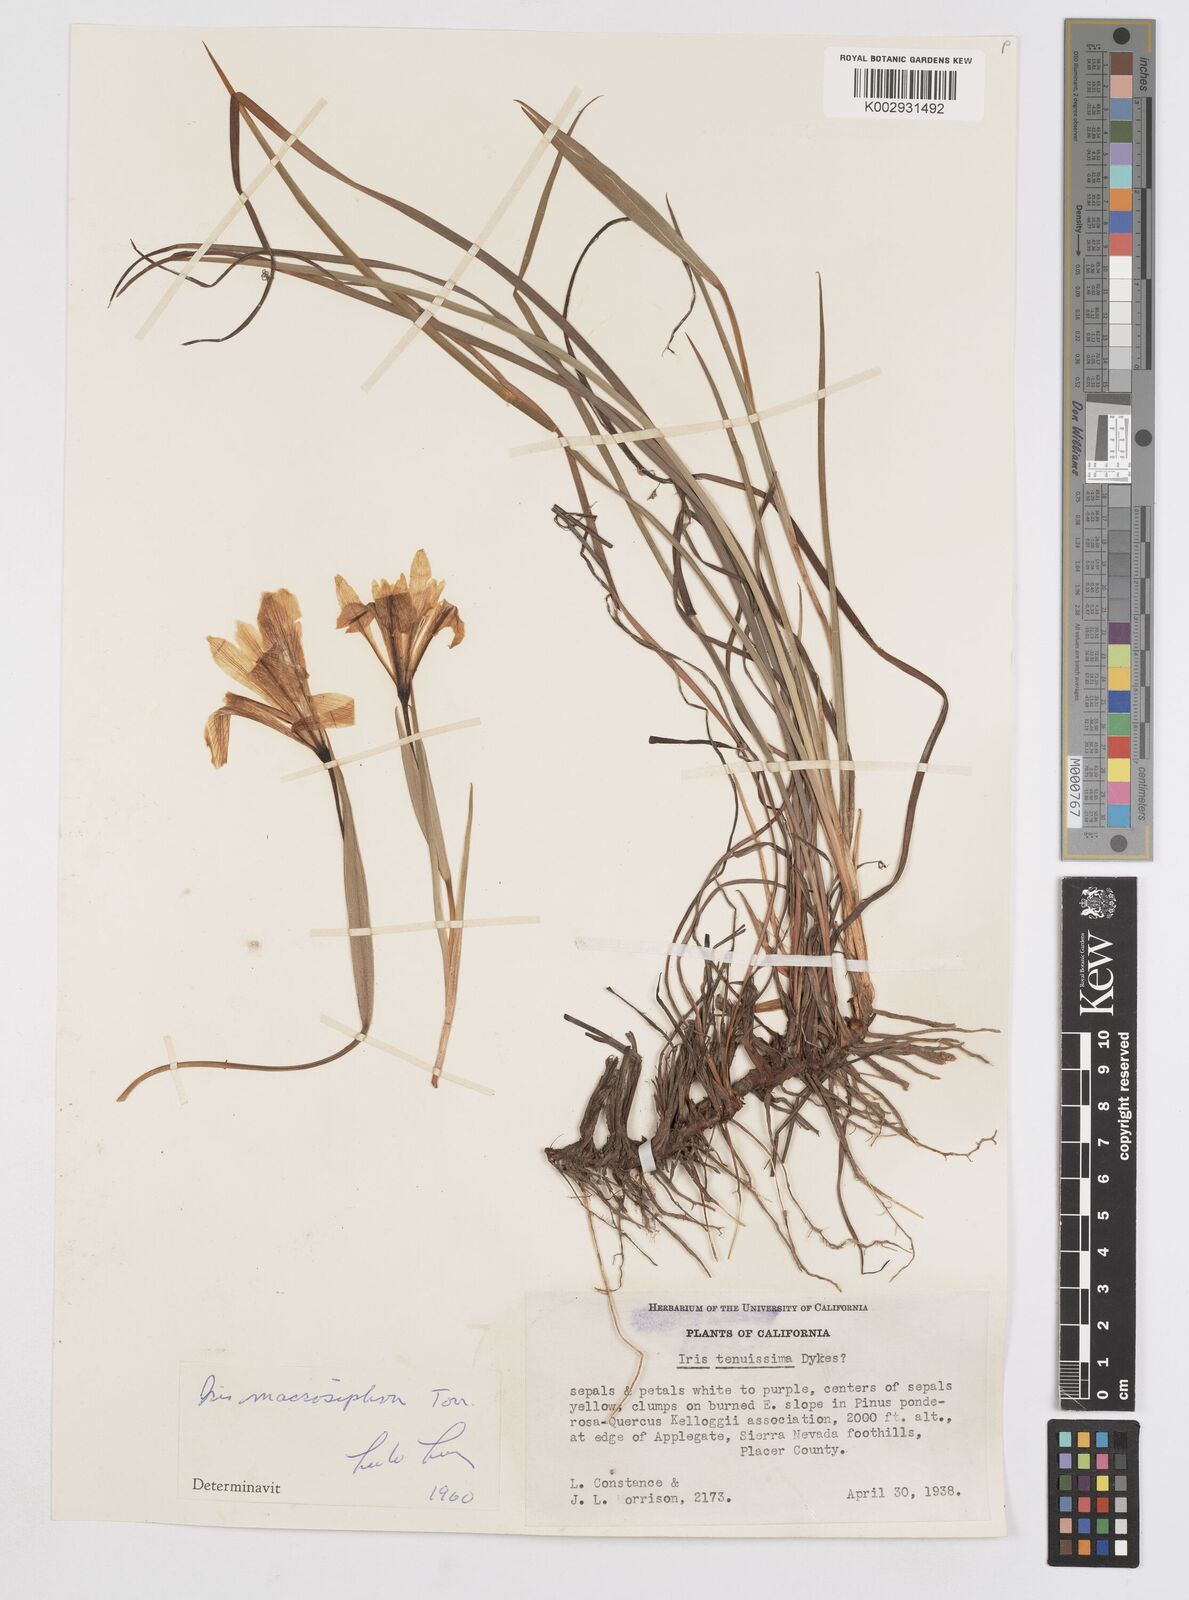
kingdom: Plantae
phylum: Tracheophyta
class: Liliopsida
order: Asparagales
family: Iridaceae
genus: Iris
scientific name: Iris macrosiphon
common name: Ground iris
